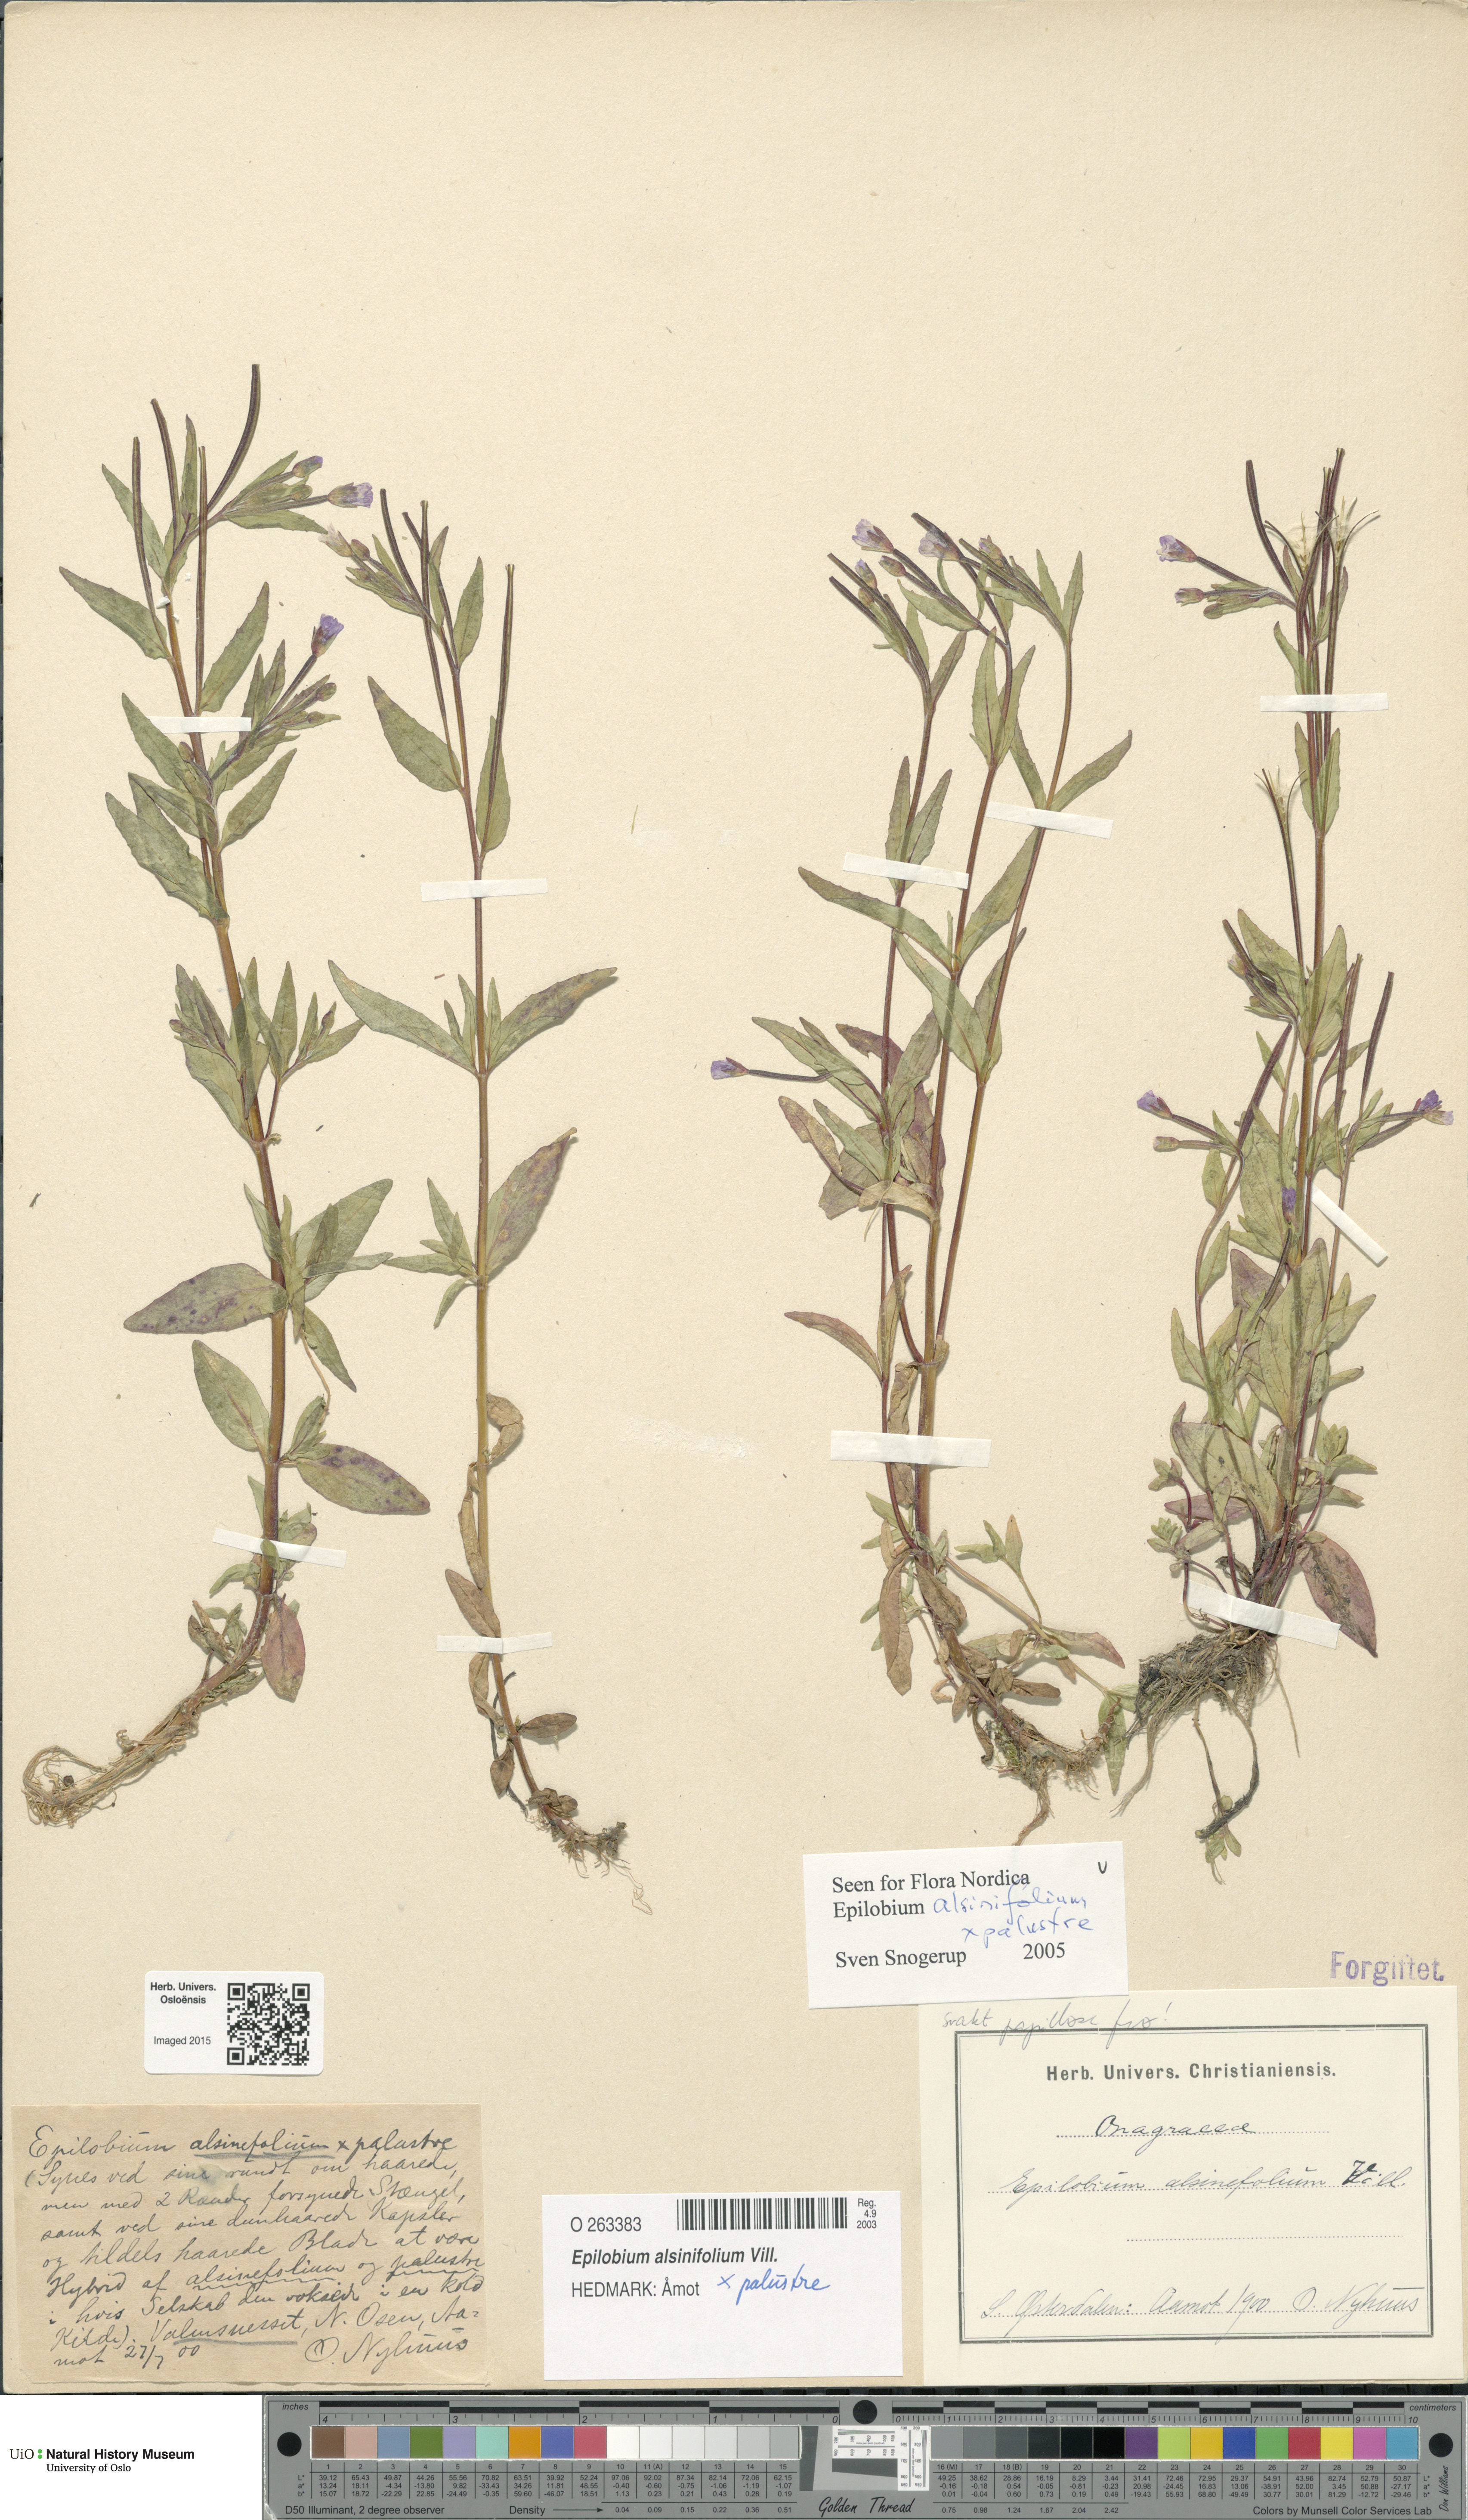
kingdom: Plantae
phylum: Tracheophyta
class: Magnoliopsida
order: Myrtales
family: Onagraceae
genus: Epilobium
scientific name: Epilobium
